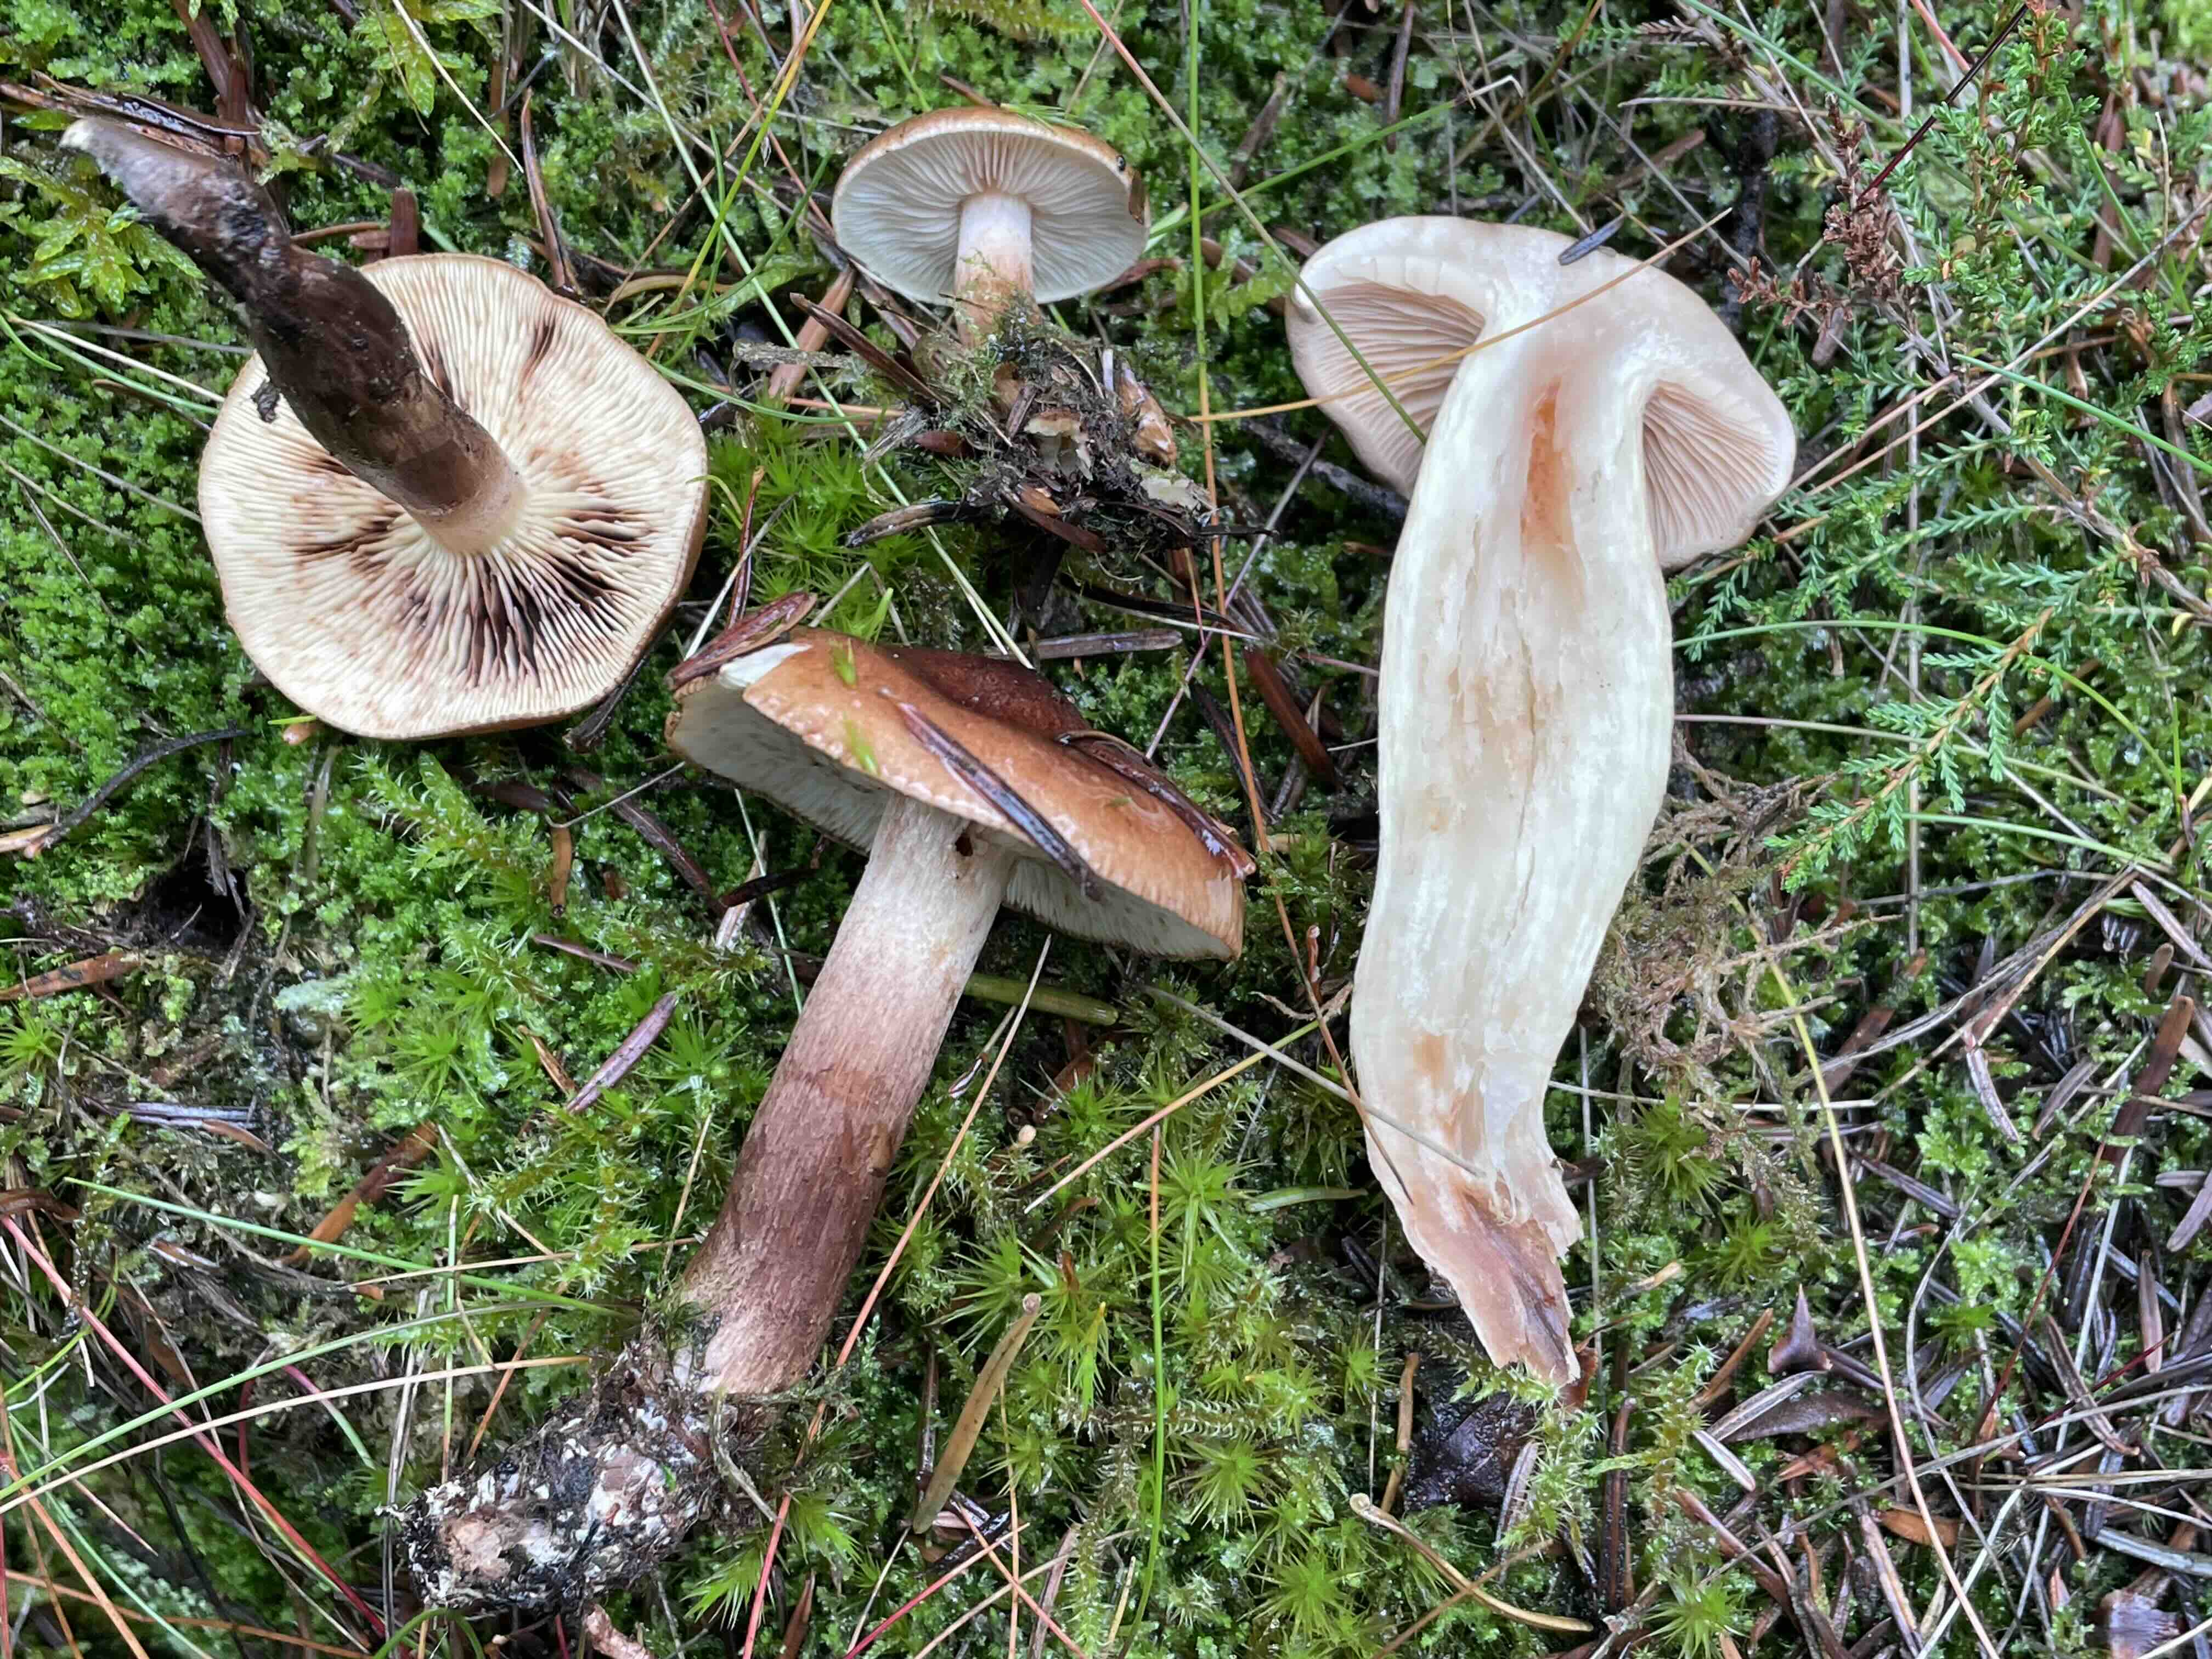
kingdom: Fungi
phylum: Basidiomycota
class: Agaricomycetes
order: Agaricales
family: Tricholomataceae
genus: Tricholoma
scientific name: Tricholoma fulvum
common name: birke-ridderhat
